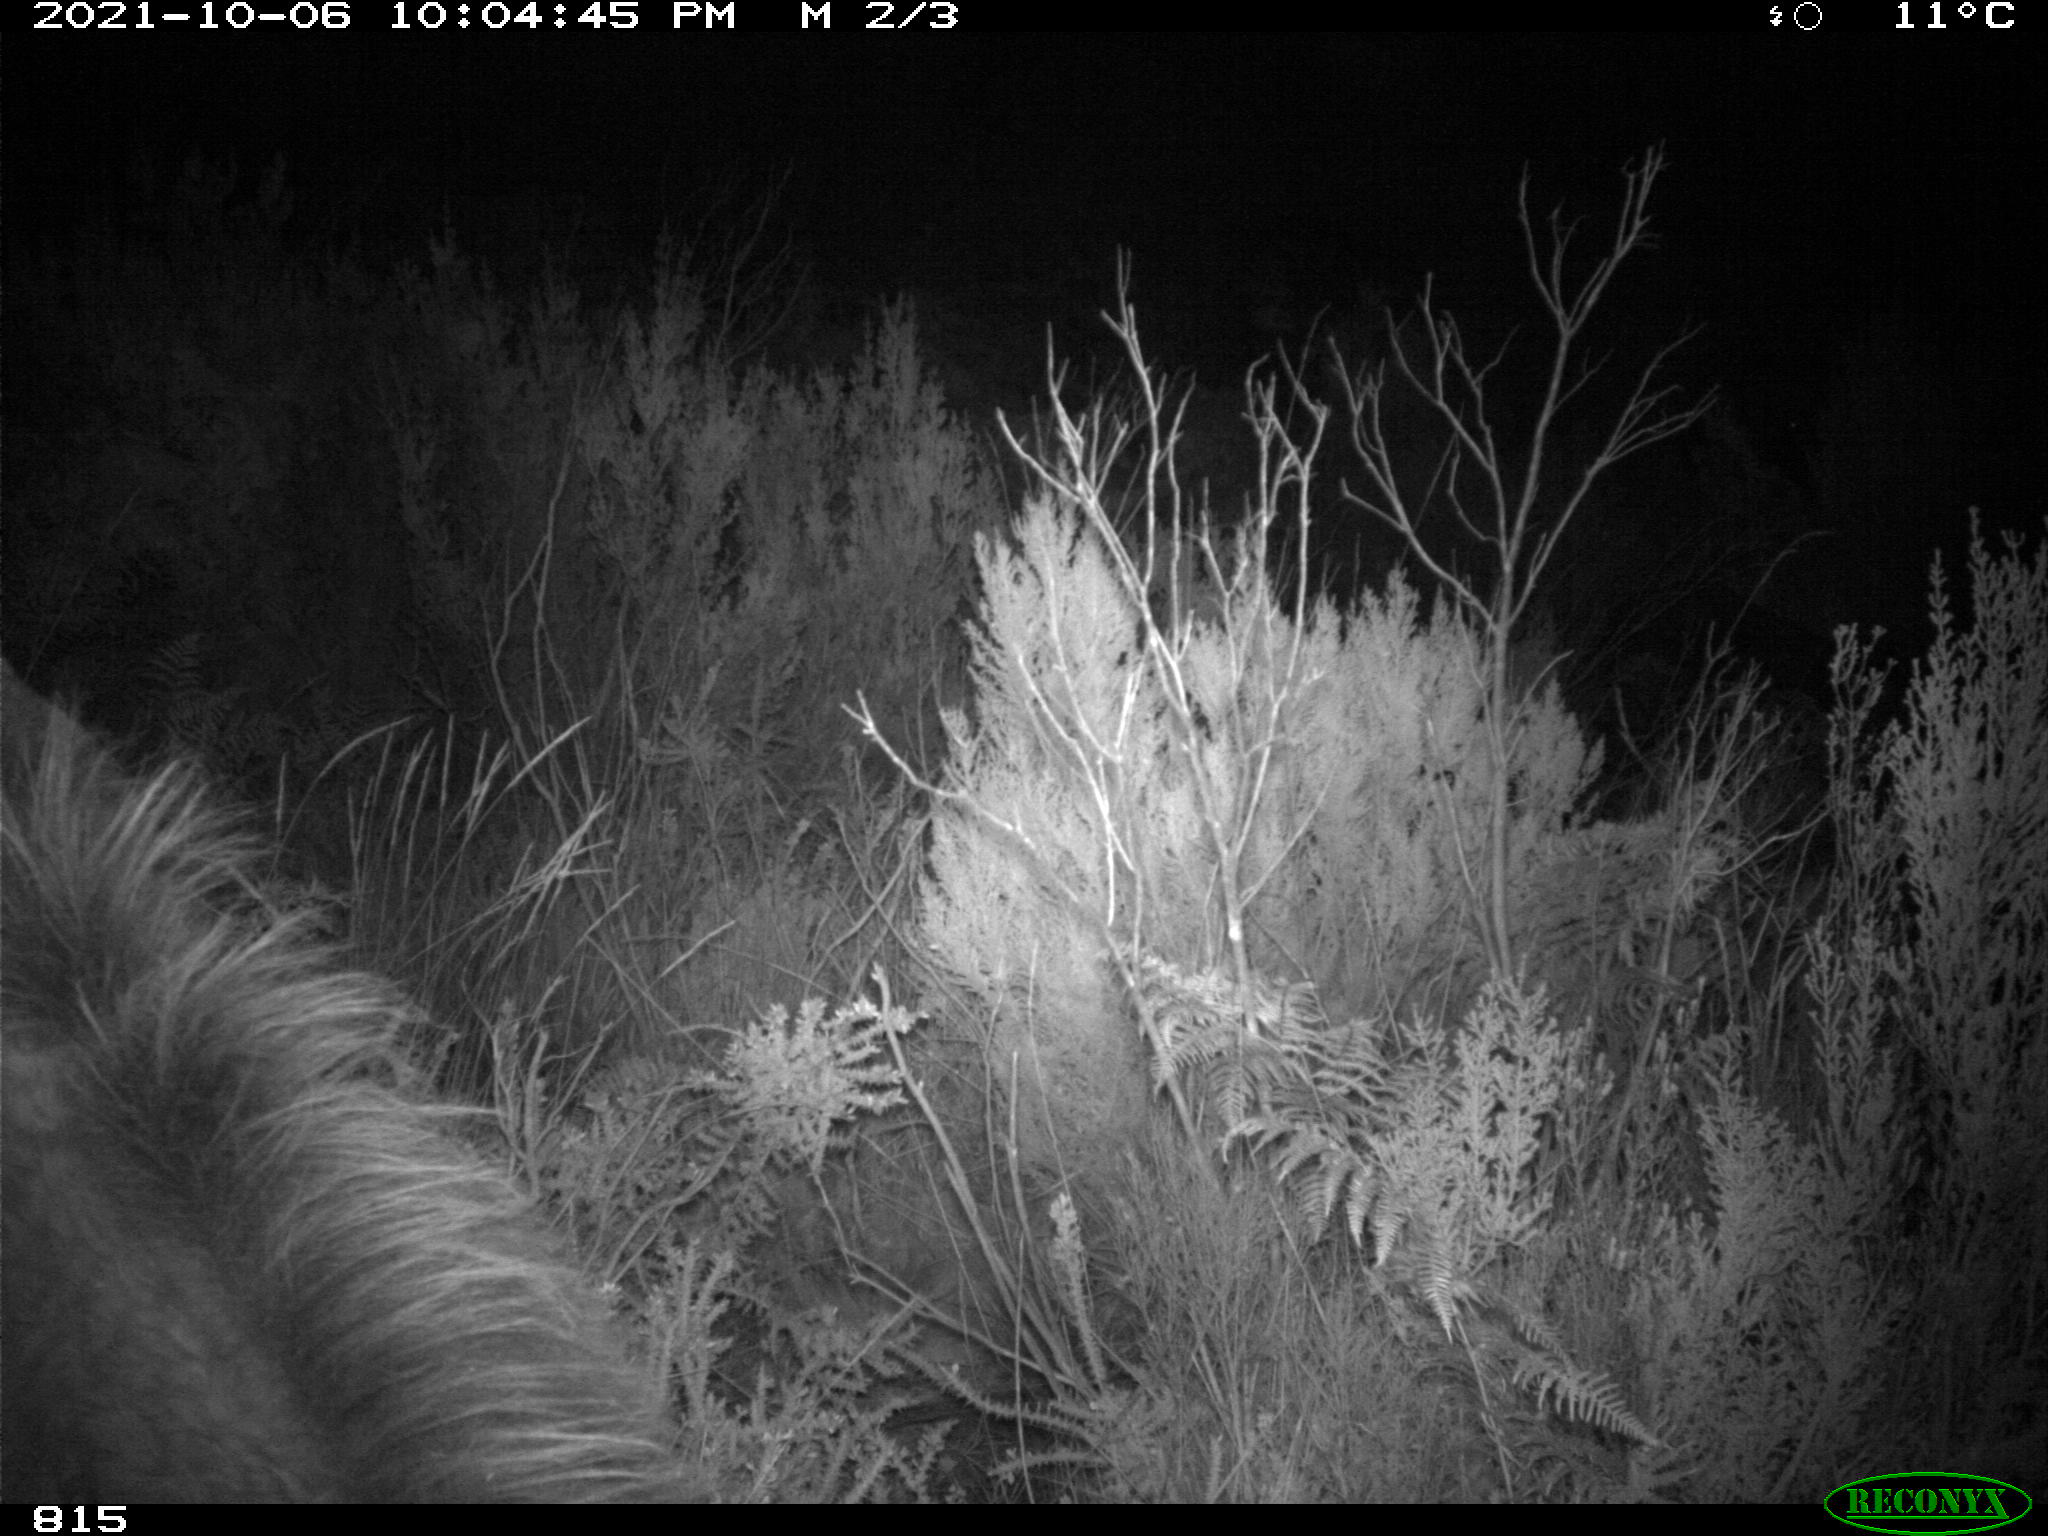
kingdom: Animalia
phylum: Chordata
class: Mammalia
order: Perissodactyla
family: Equidae
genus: Equus
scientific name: Equus caballus
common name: Horse
